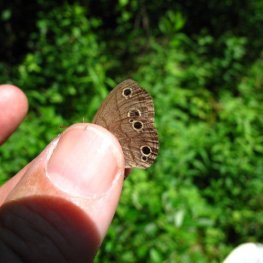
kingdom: Animalia
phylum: Arthropoda
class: Insecta
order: Lepidoptera
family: Nymphalidae
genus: Euptychia
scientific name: Euptychia cymela
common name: Little Wood Satyr
